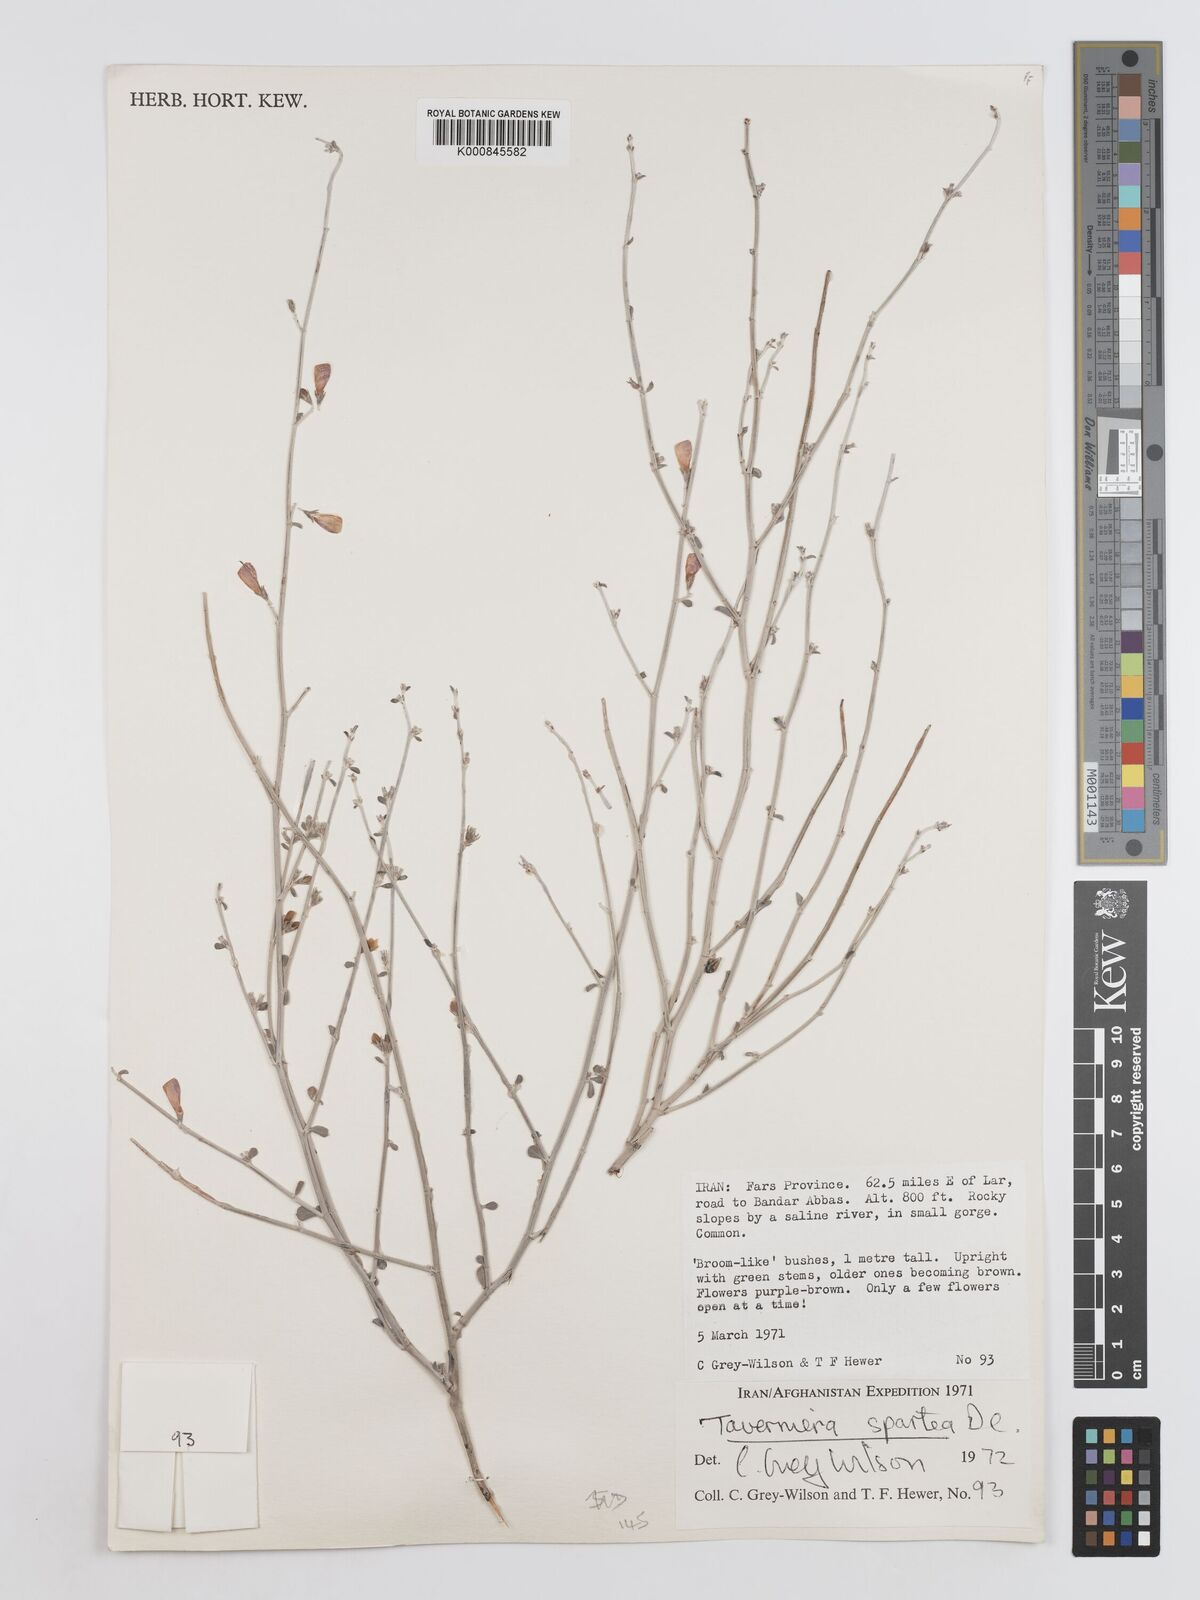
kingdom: Plantae
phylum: Tracheophyta
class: Magnoliopsida
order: Fabales
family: Fabaceae
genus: Taverniera
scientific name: Taverniera spartea
